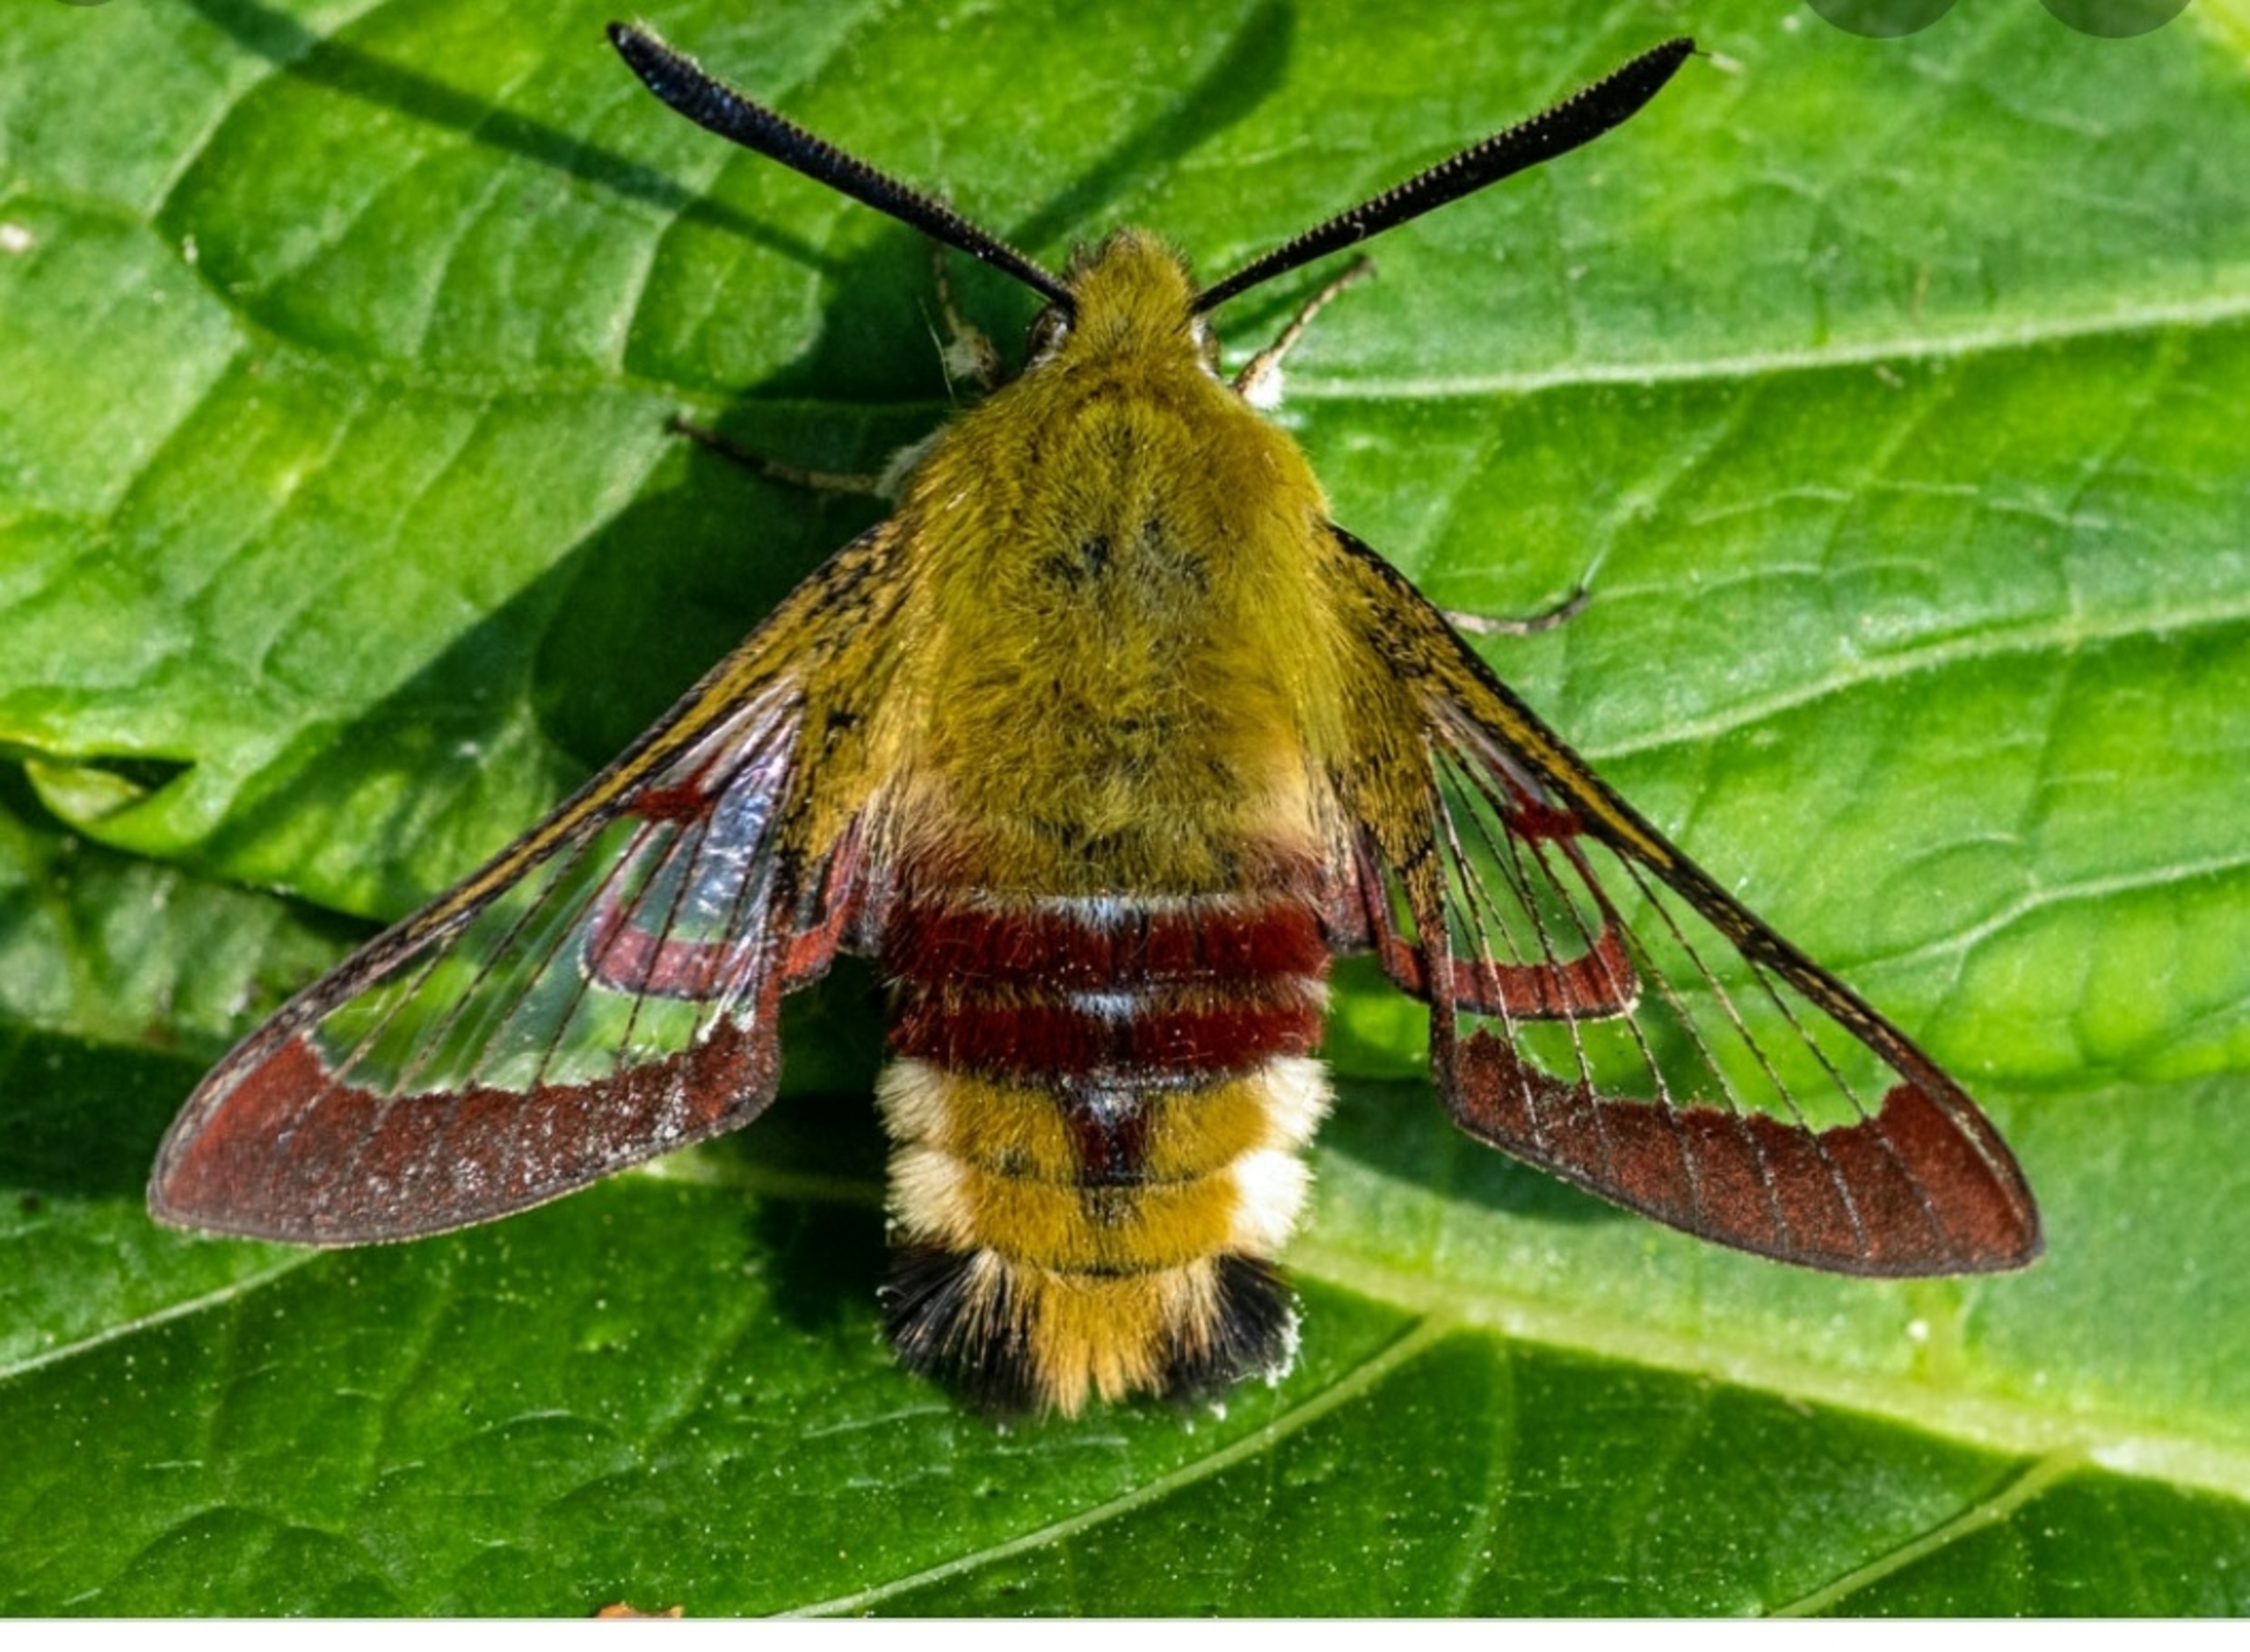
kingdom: Animalia
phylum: Arthropoda
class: Insecta
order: Lepidoptera
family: Sphingidae
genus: Hemaris
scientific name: Hemaris fuciformis
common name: Bredrandet humlebisværmer
